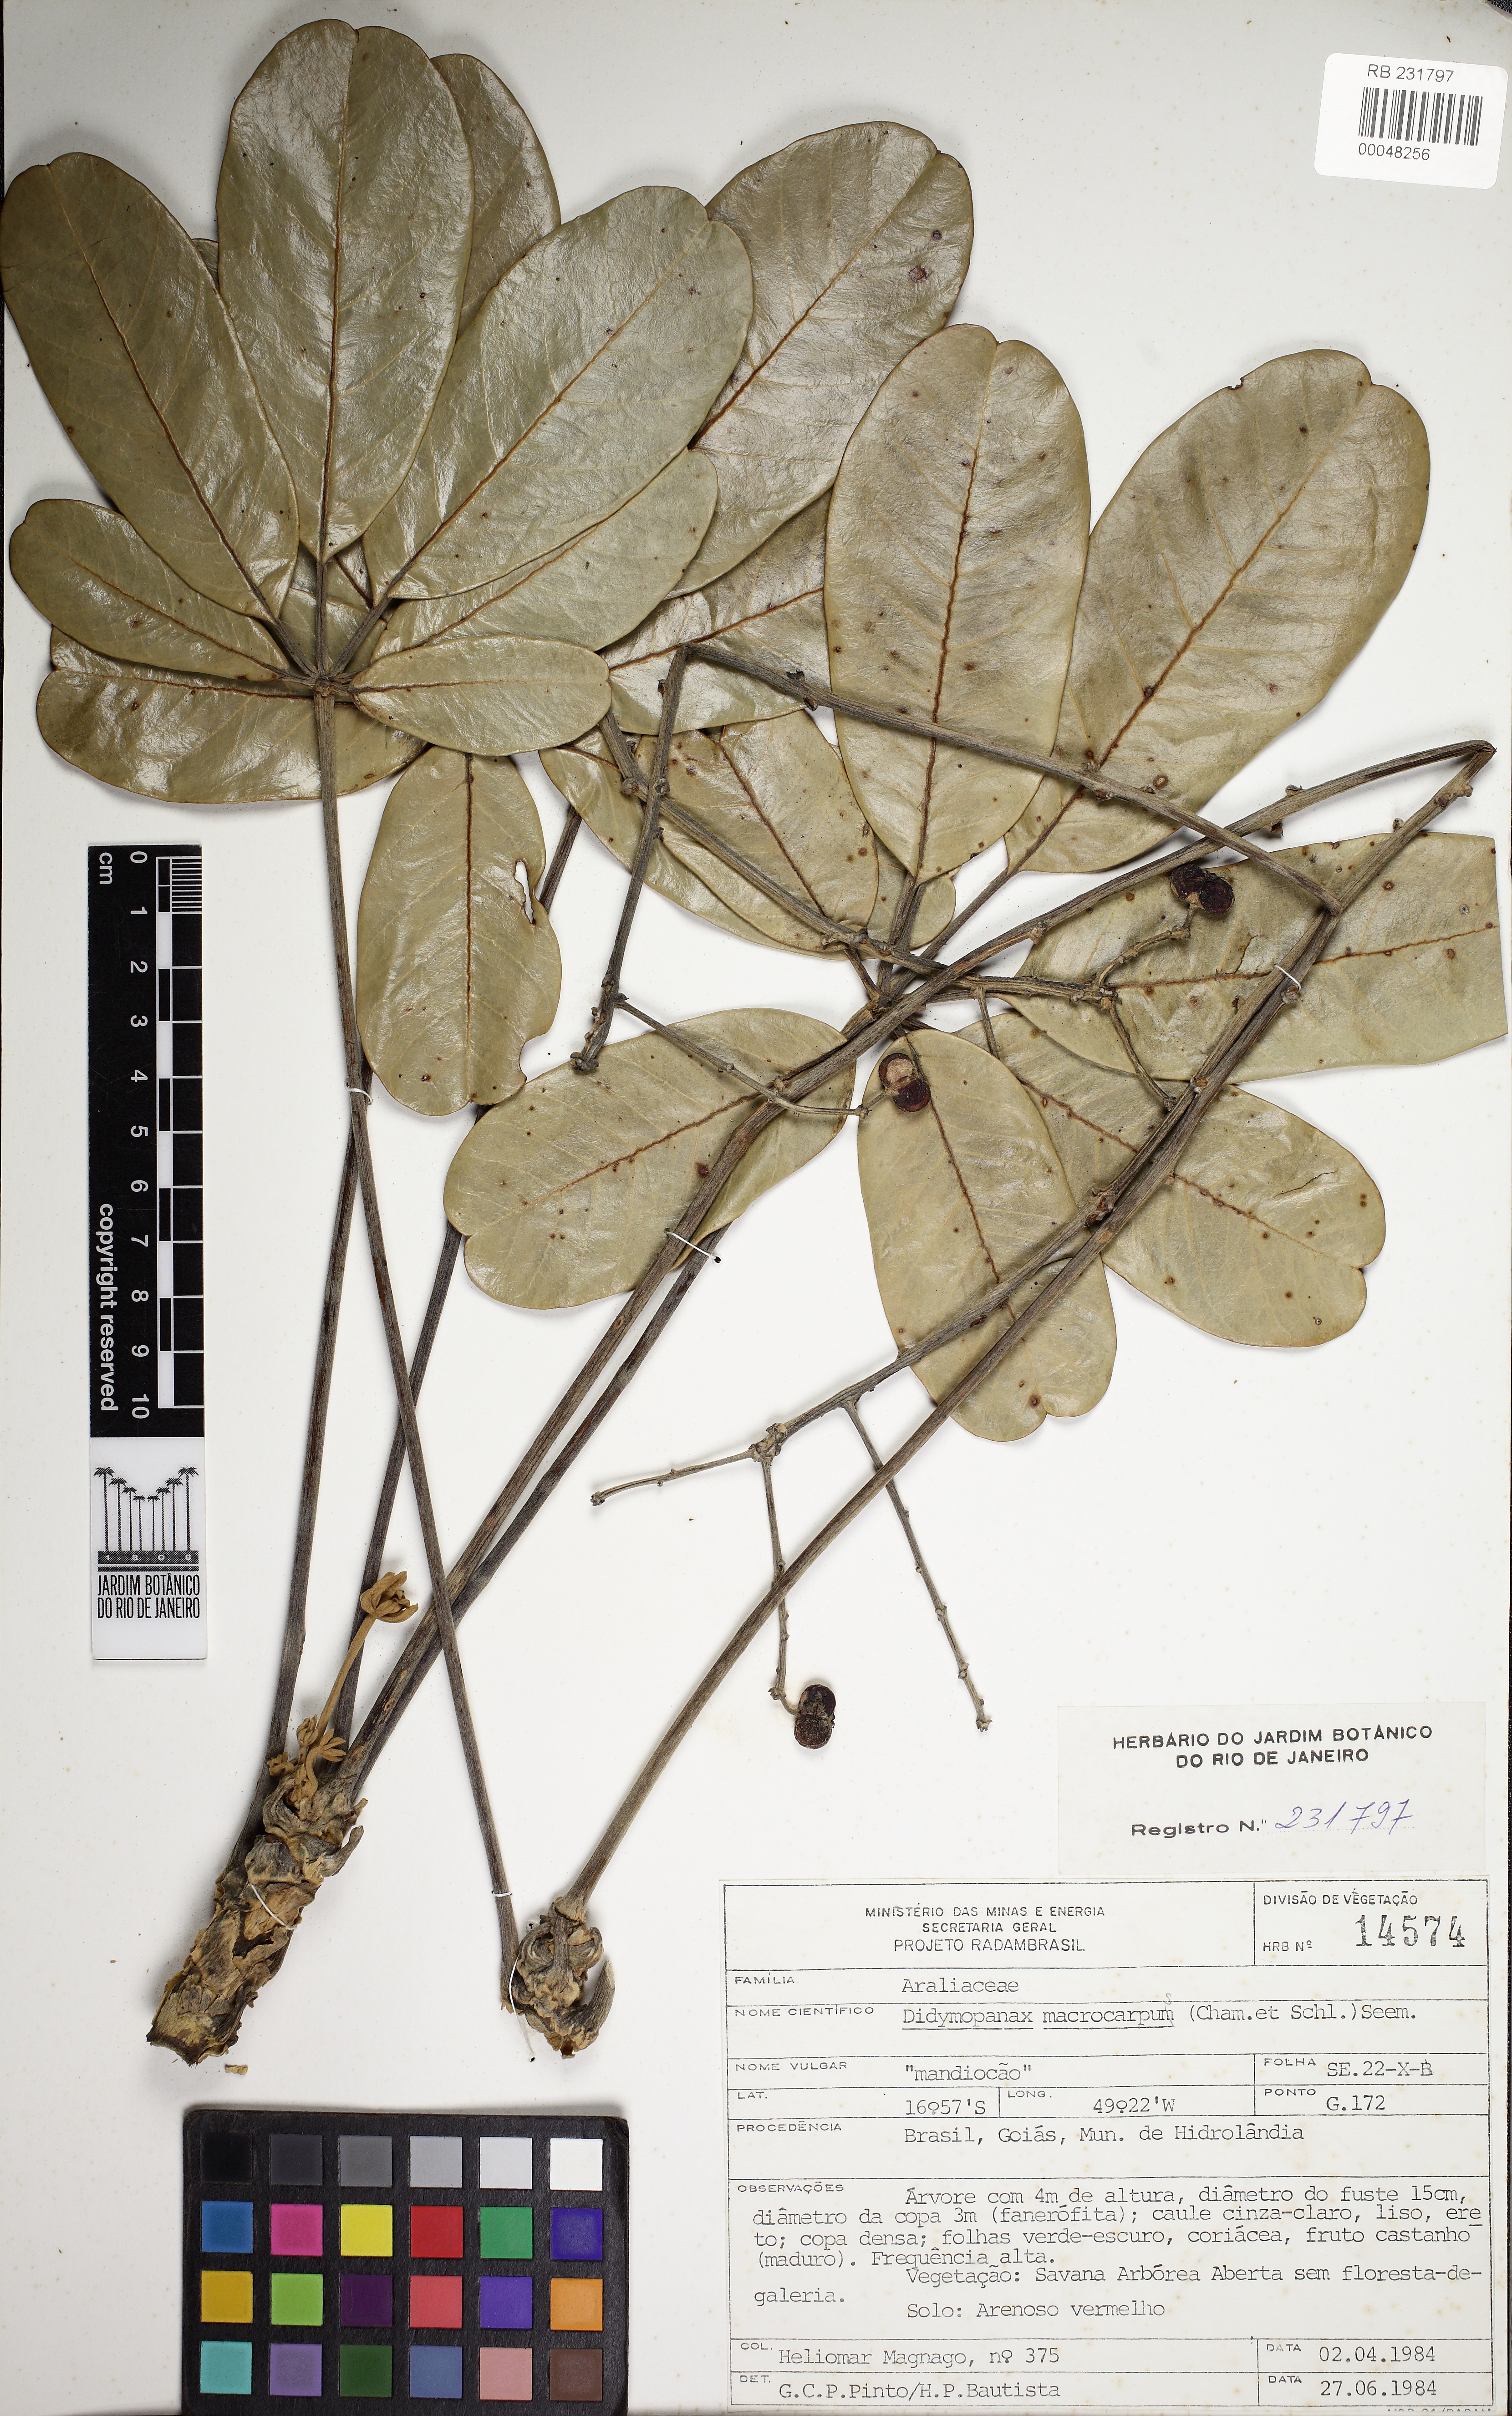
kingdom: Plantae
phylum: Tracheophyta
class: Magnoliopsida
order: Apiales
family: Araliaceae
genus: Didymopanax
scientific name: Didymopanax macrocarpus
